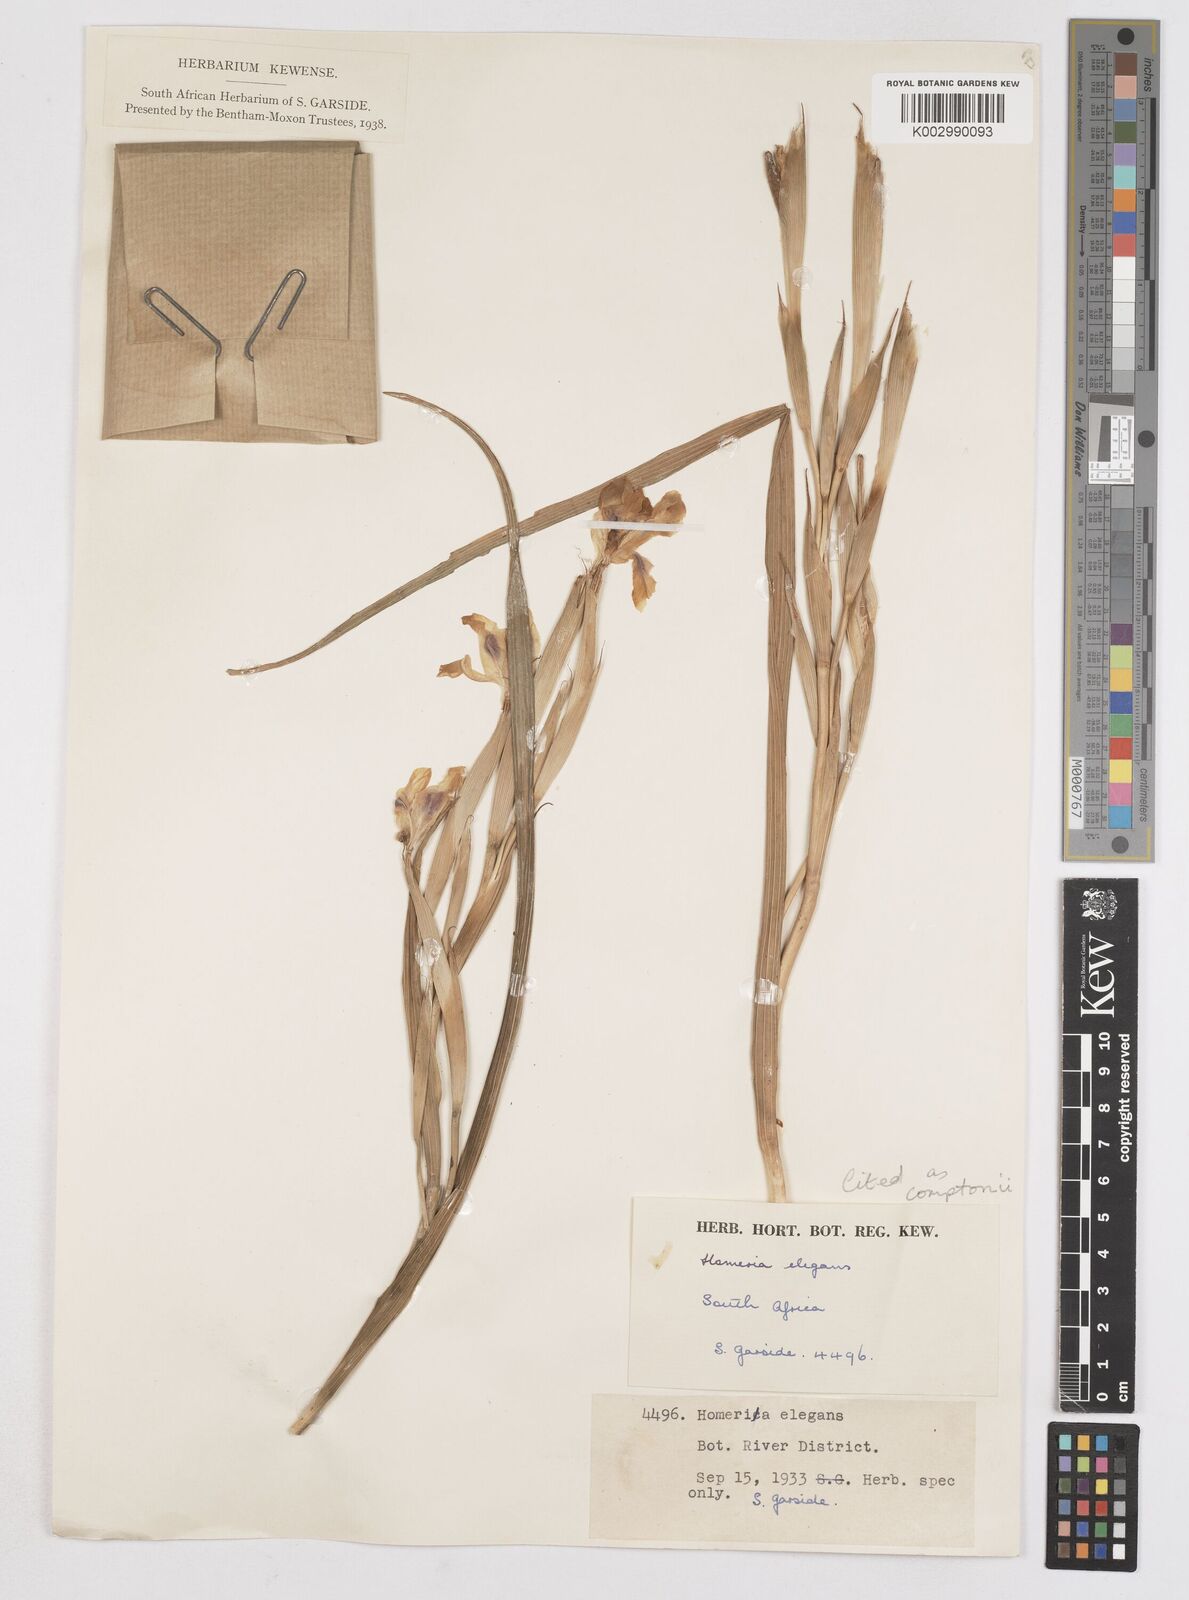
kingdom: Plantae
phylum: Tracheophyta
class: Liliopsida
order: Asparagales
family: Iridaceae
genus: Moraea
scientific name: Moraea comptonii
